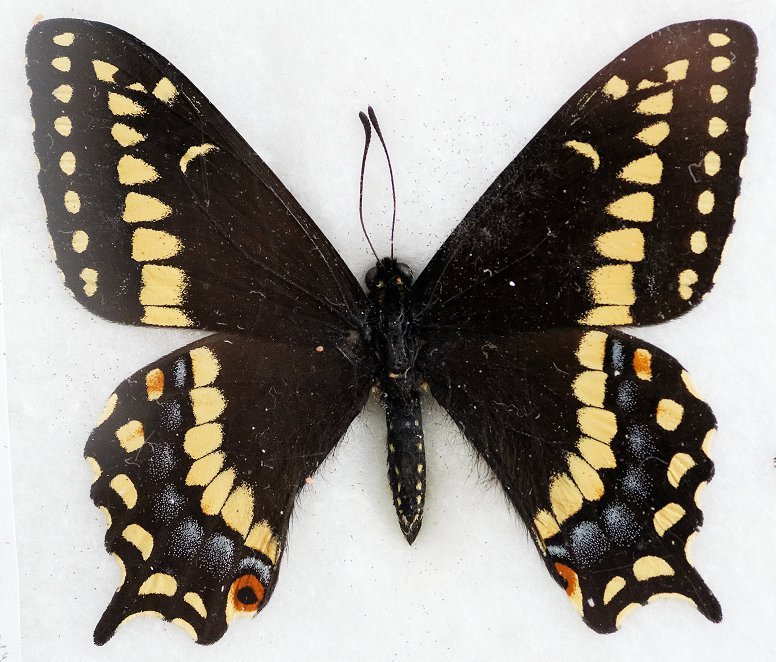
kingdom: Animalia
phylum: Arthropoda
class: Insecta
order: Lepidoptera
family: Papilionidae
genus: Papilio
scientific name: Papilio brevicauda
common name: Short-tailed Swallowtail
